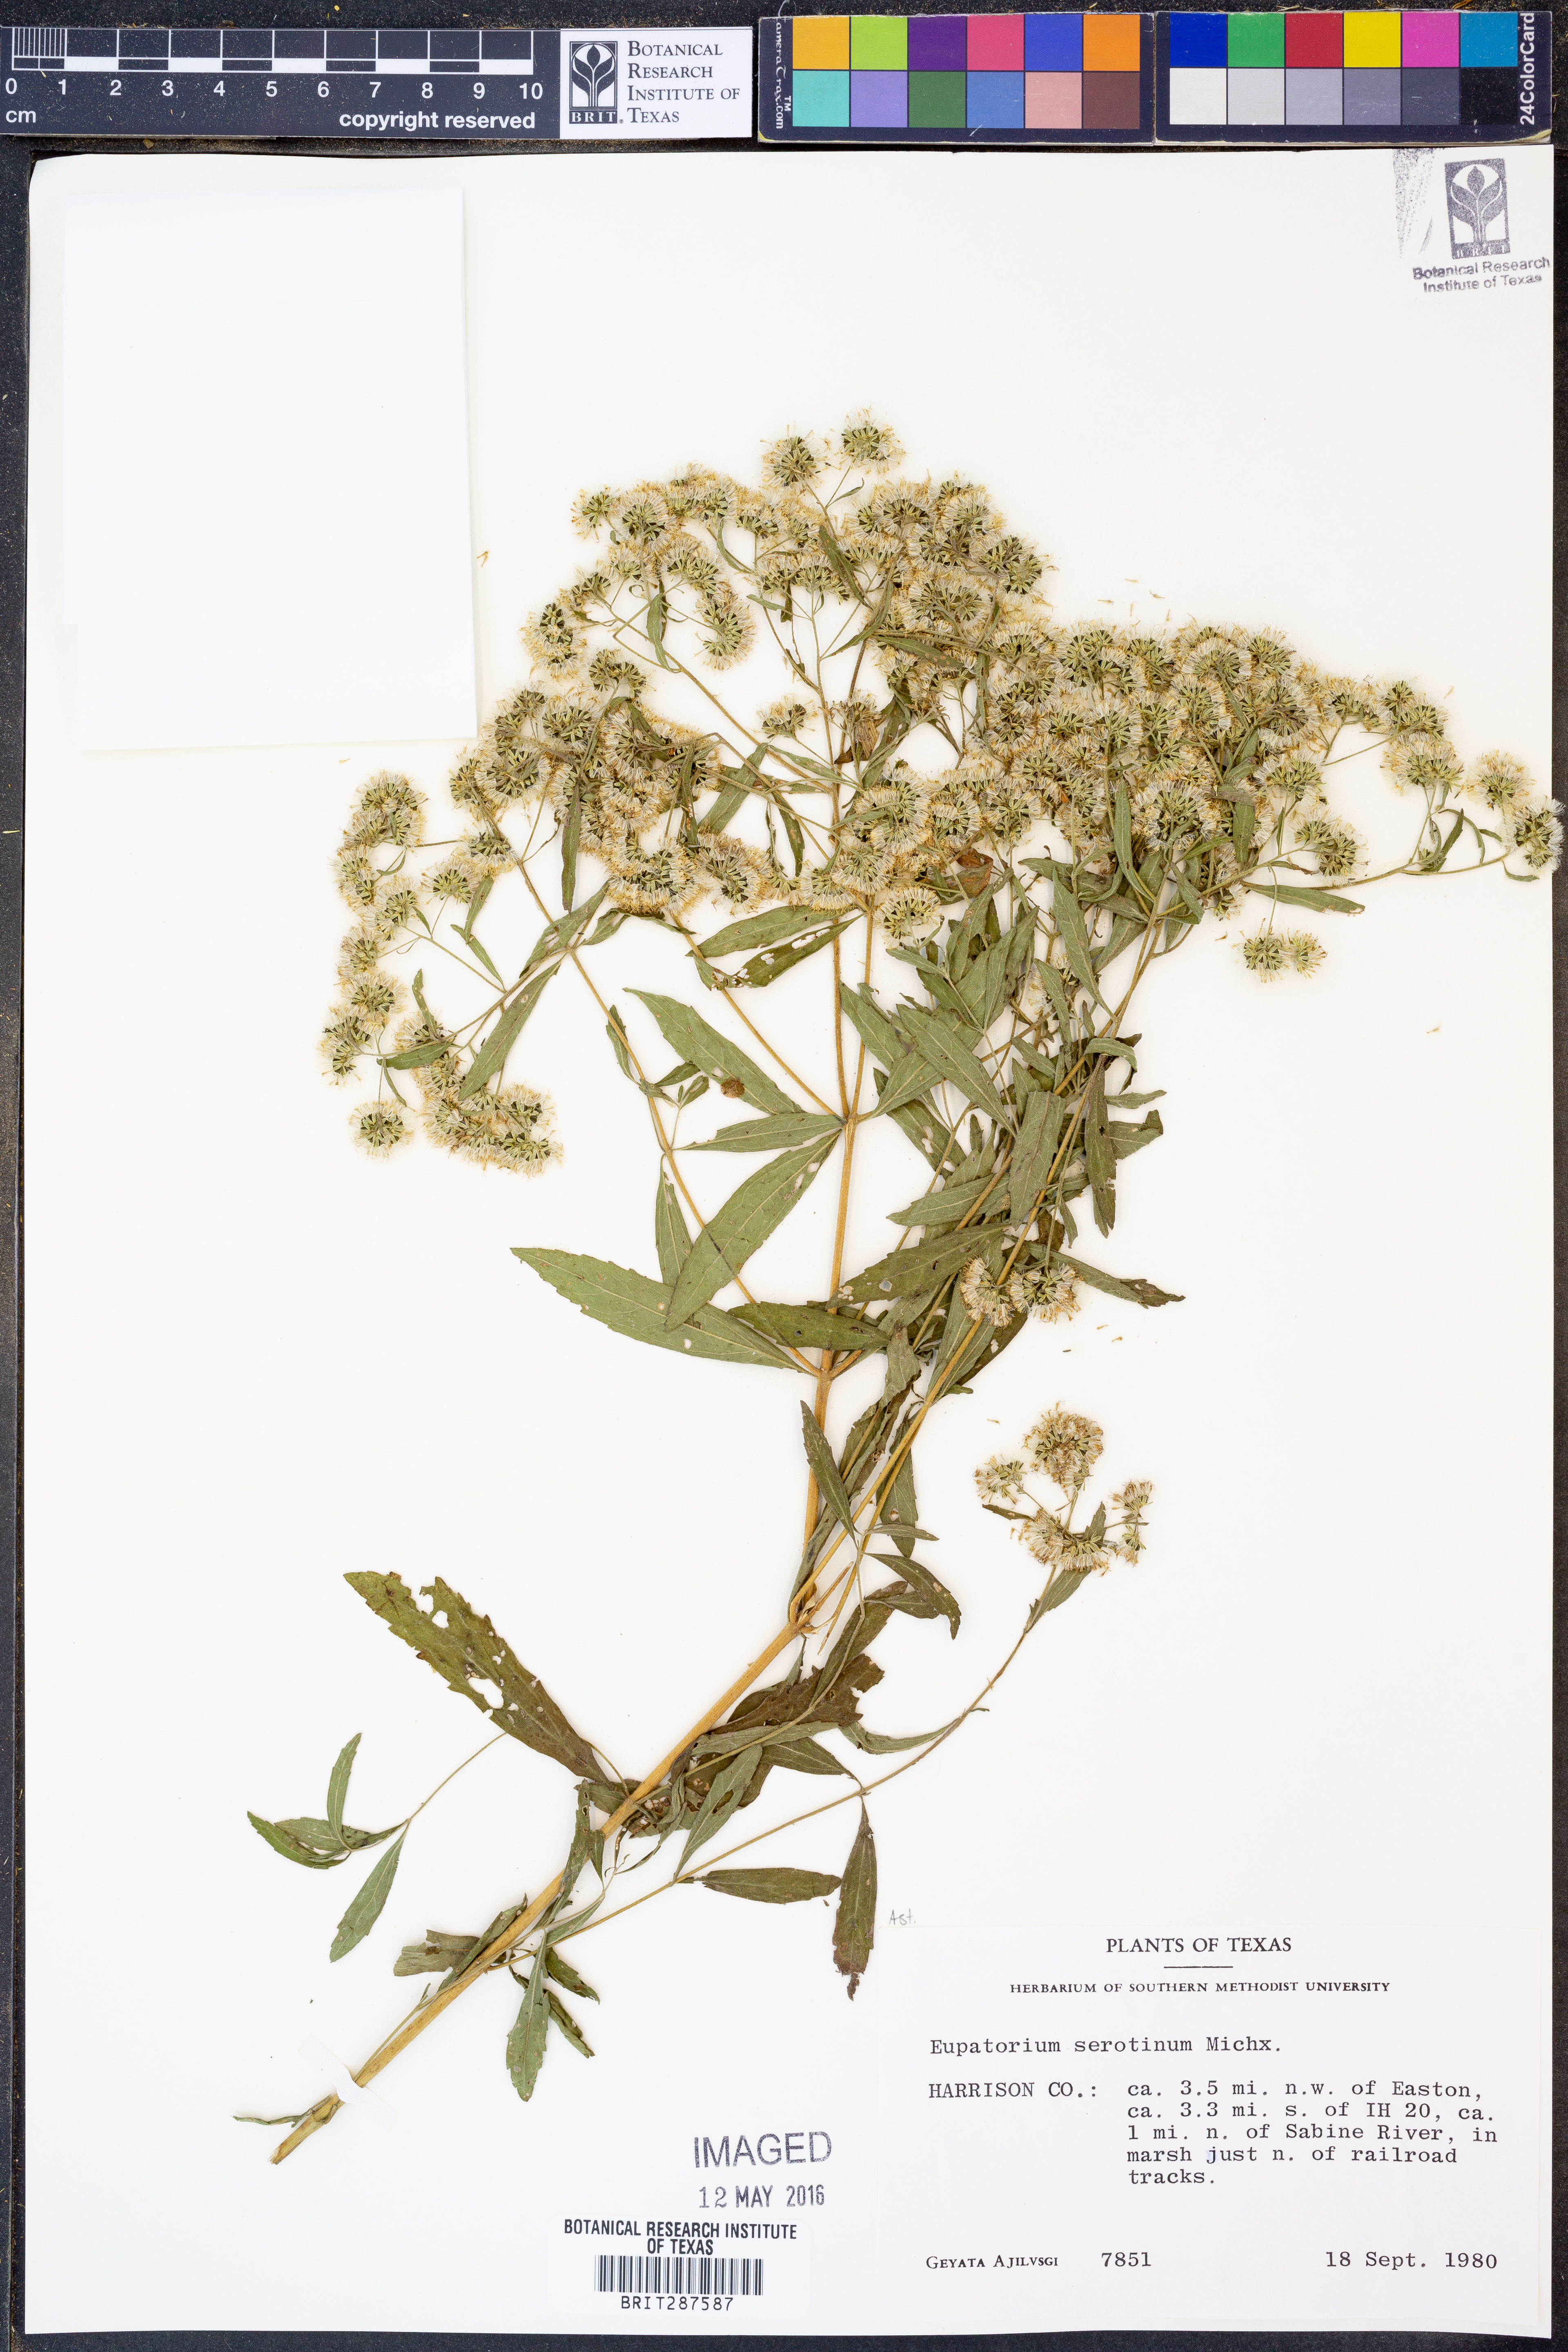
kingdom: Plantae
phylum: Tracheophyta
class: Magnoliopsida
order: Asterales
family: Asteraceae
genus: Eupatorium
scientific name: Eupatorium serotinum
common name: Late boneset
